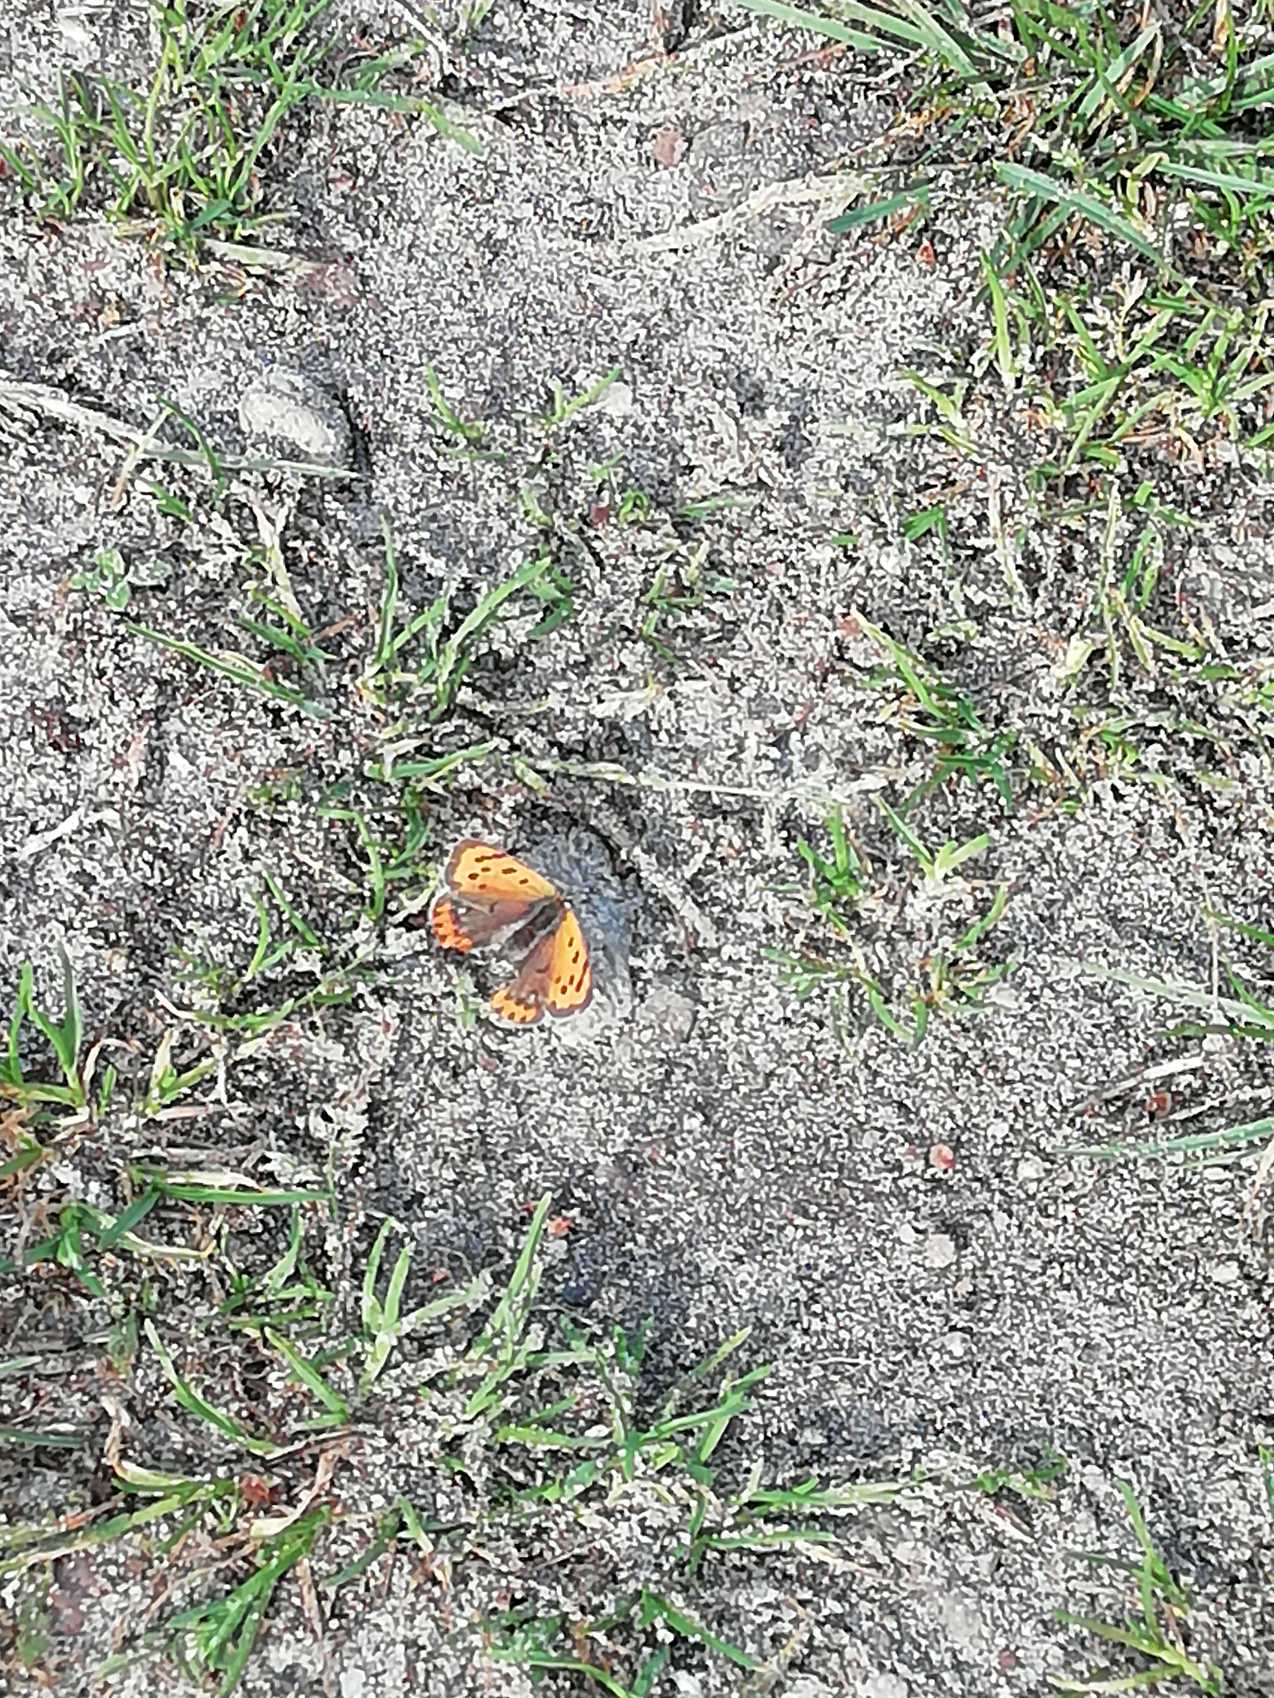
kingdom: Animalia
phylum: Arthropoda
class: Insecta
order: Lepidoptera
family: Lycaenidae
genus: Lycaena
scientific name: Lycaena phlaeas
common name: Lille ildfugl
